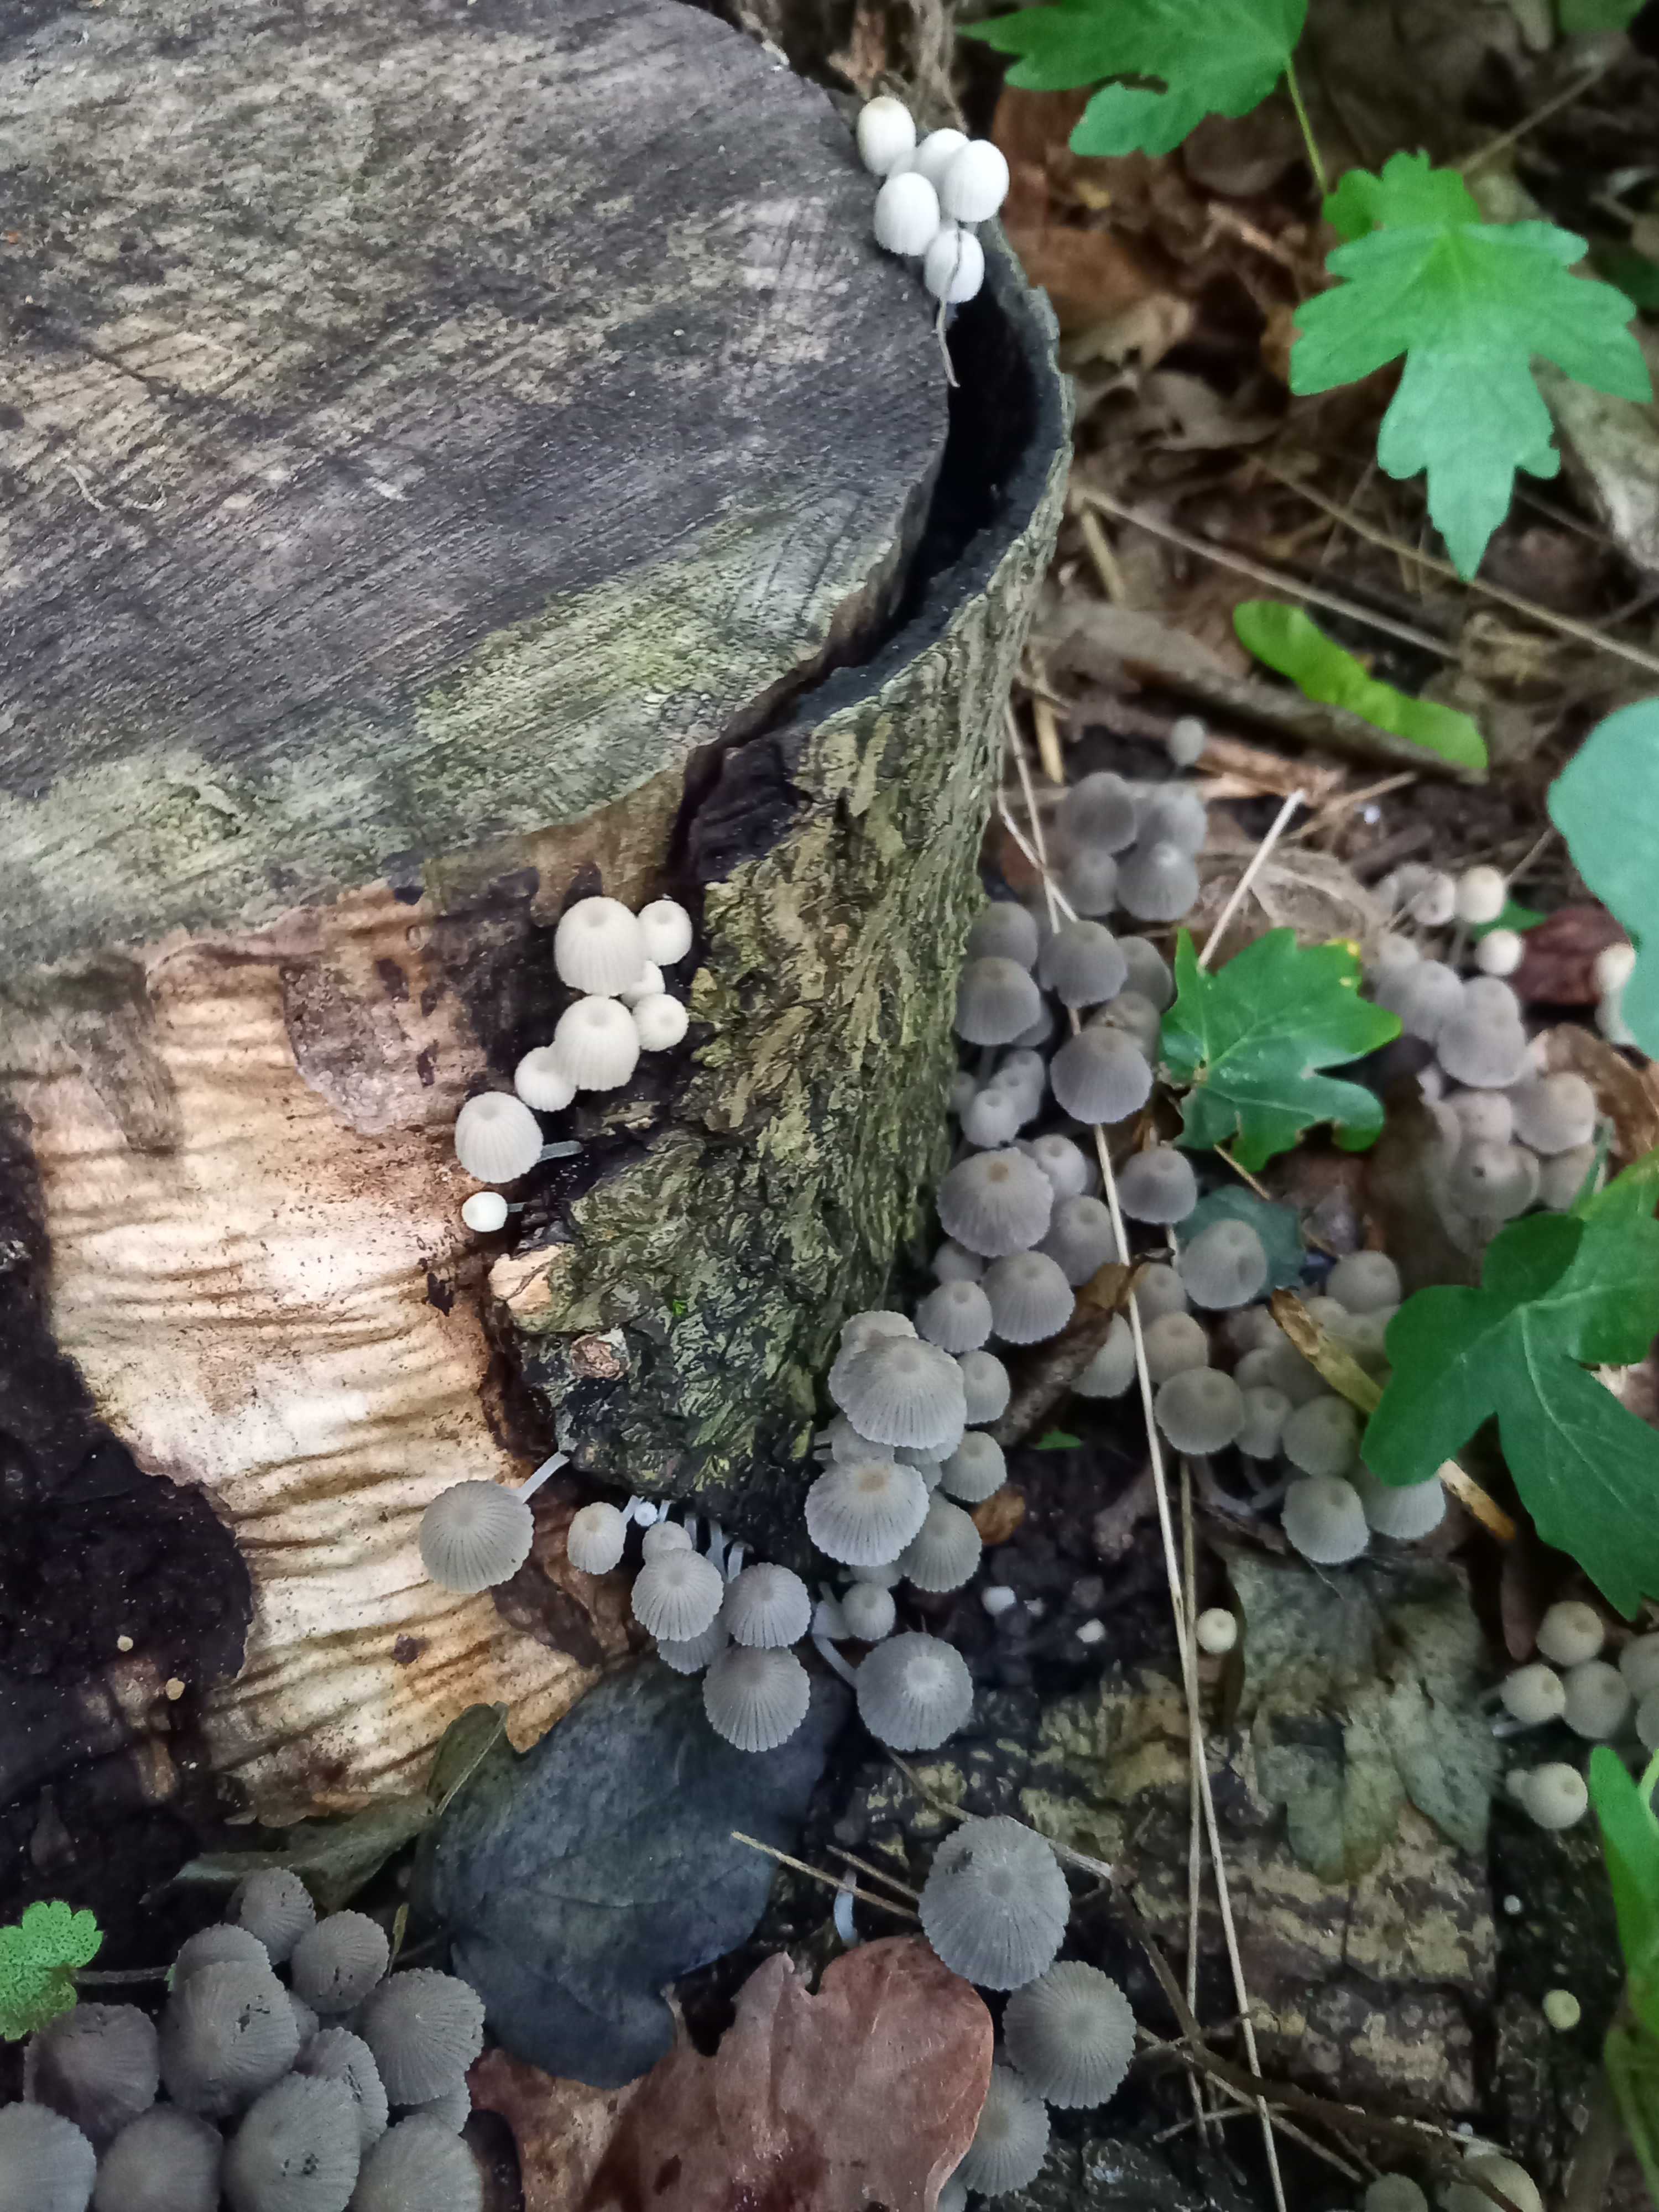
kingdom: Fungi
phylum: Basidiomycota
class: Agaricomycetes
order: Agaricales
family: Psathyrellaceae
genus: Coprinellus
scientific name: Coprinellus disseminatus
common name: bredsået blækhat
